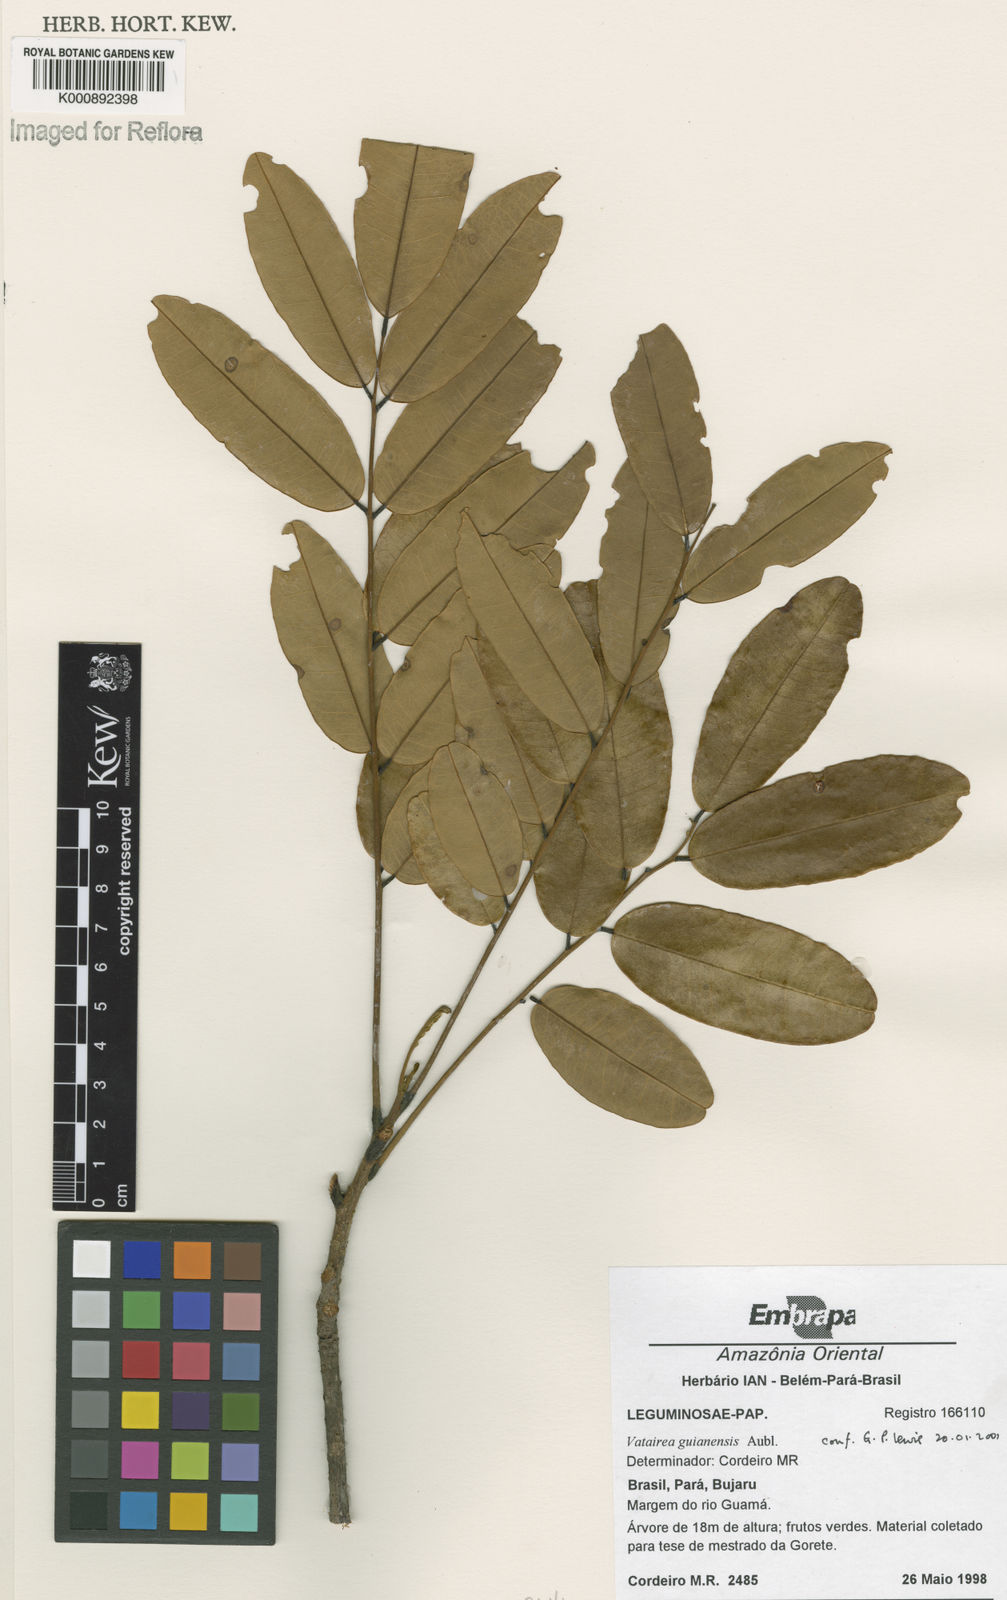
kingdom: Plantae
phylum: Tracheophyta
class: Magnoliopsida
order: Fabales
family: Fabaceae
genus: Vatairea
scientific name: Vatairea guianensis
